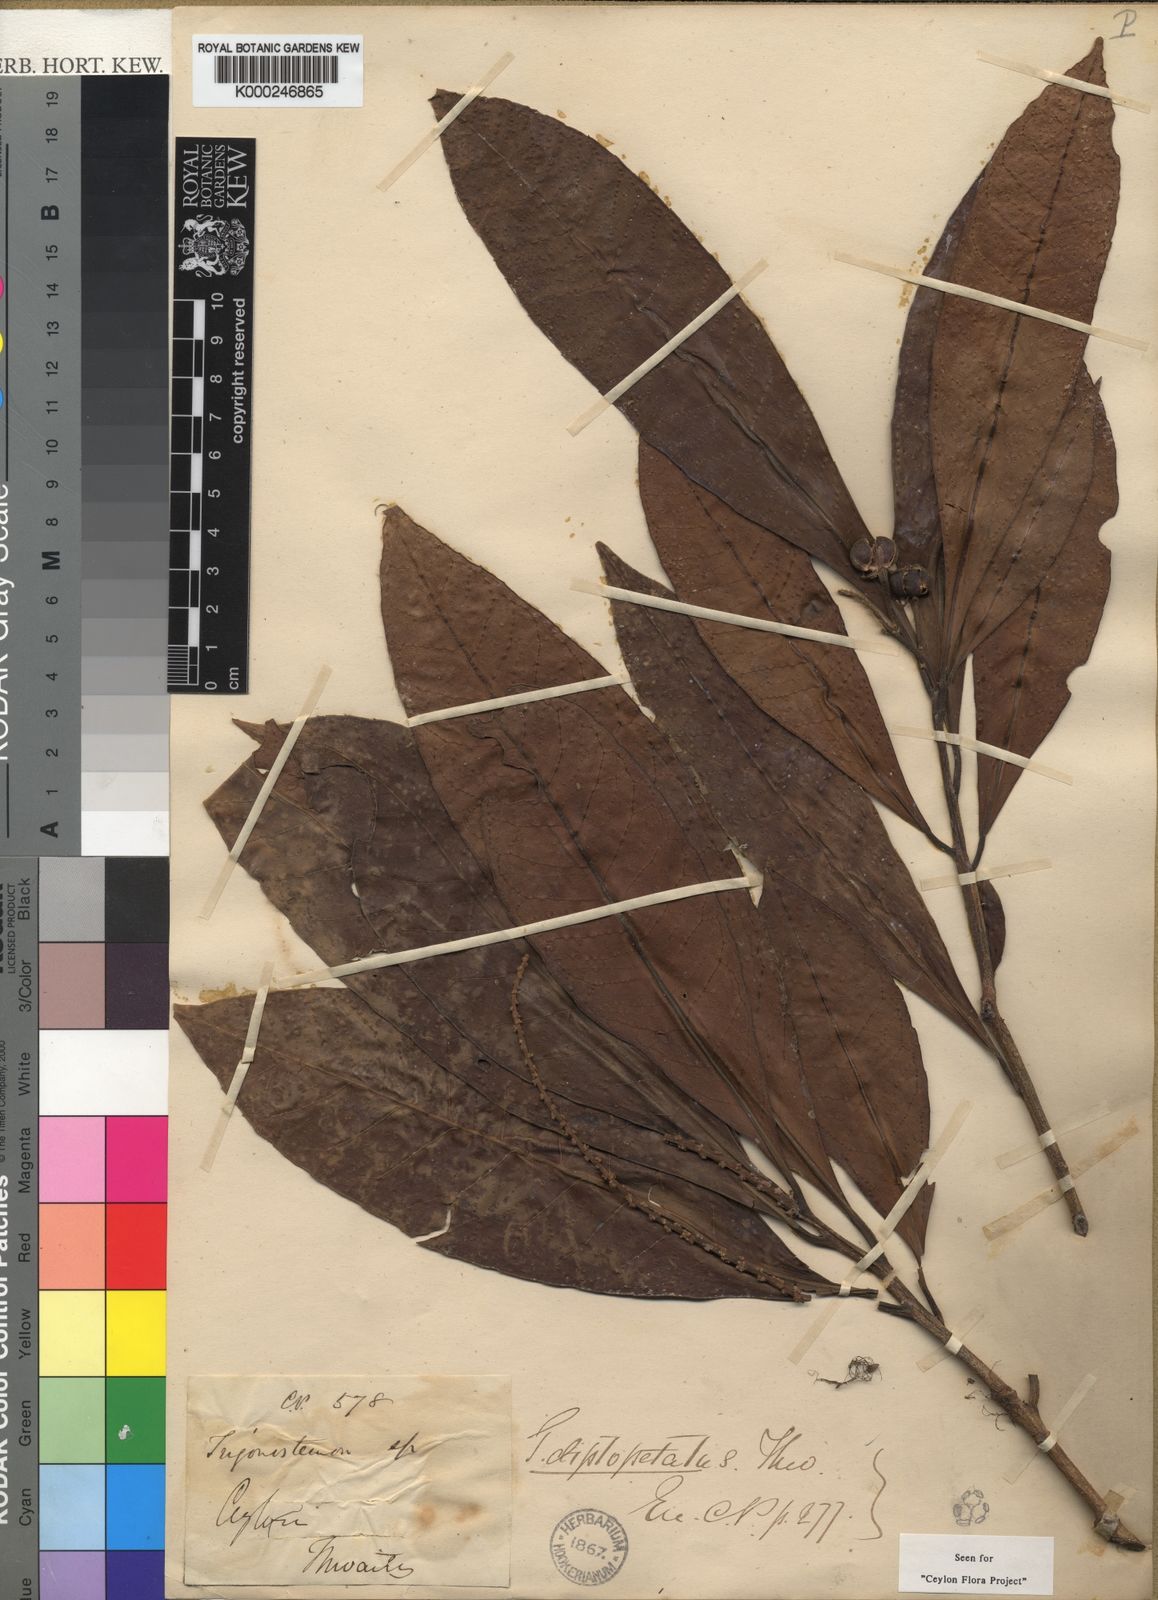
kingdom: Plantae
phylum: Tracheophyta
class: Magnoliopsida
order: Malpighiales
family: Euphorbiaceae
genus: Trigonostemon
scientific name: Trigonostemon diplopetalus
